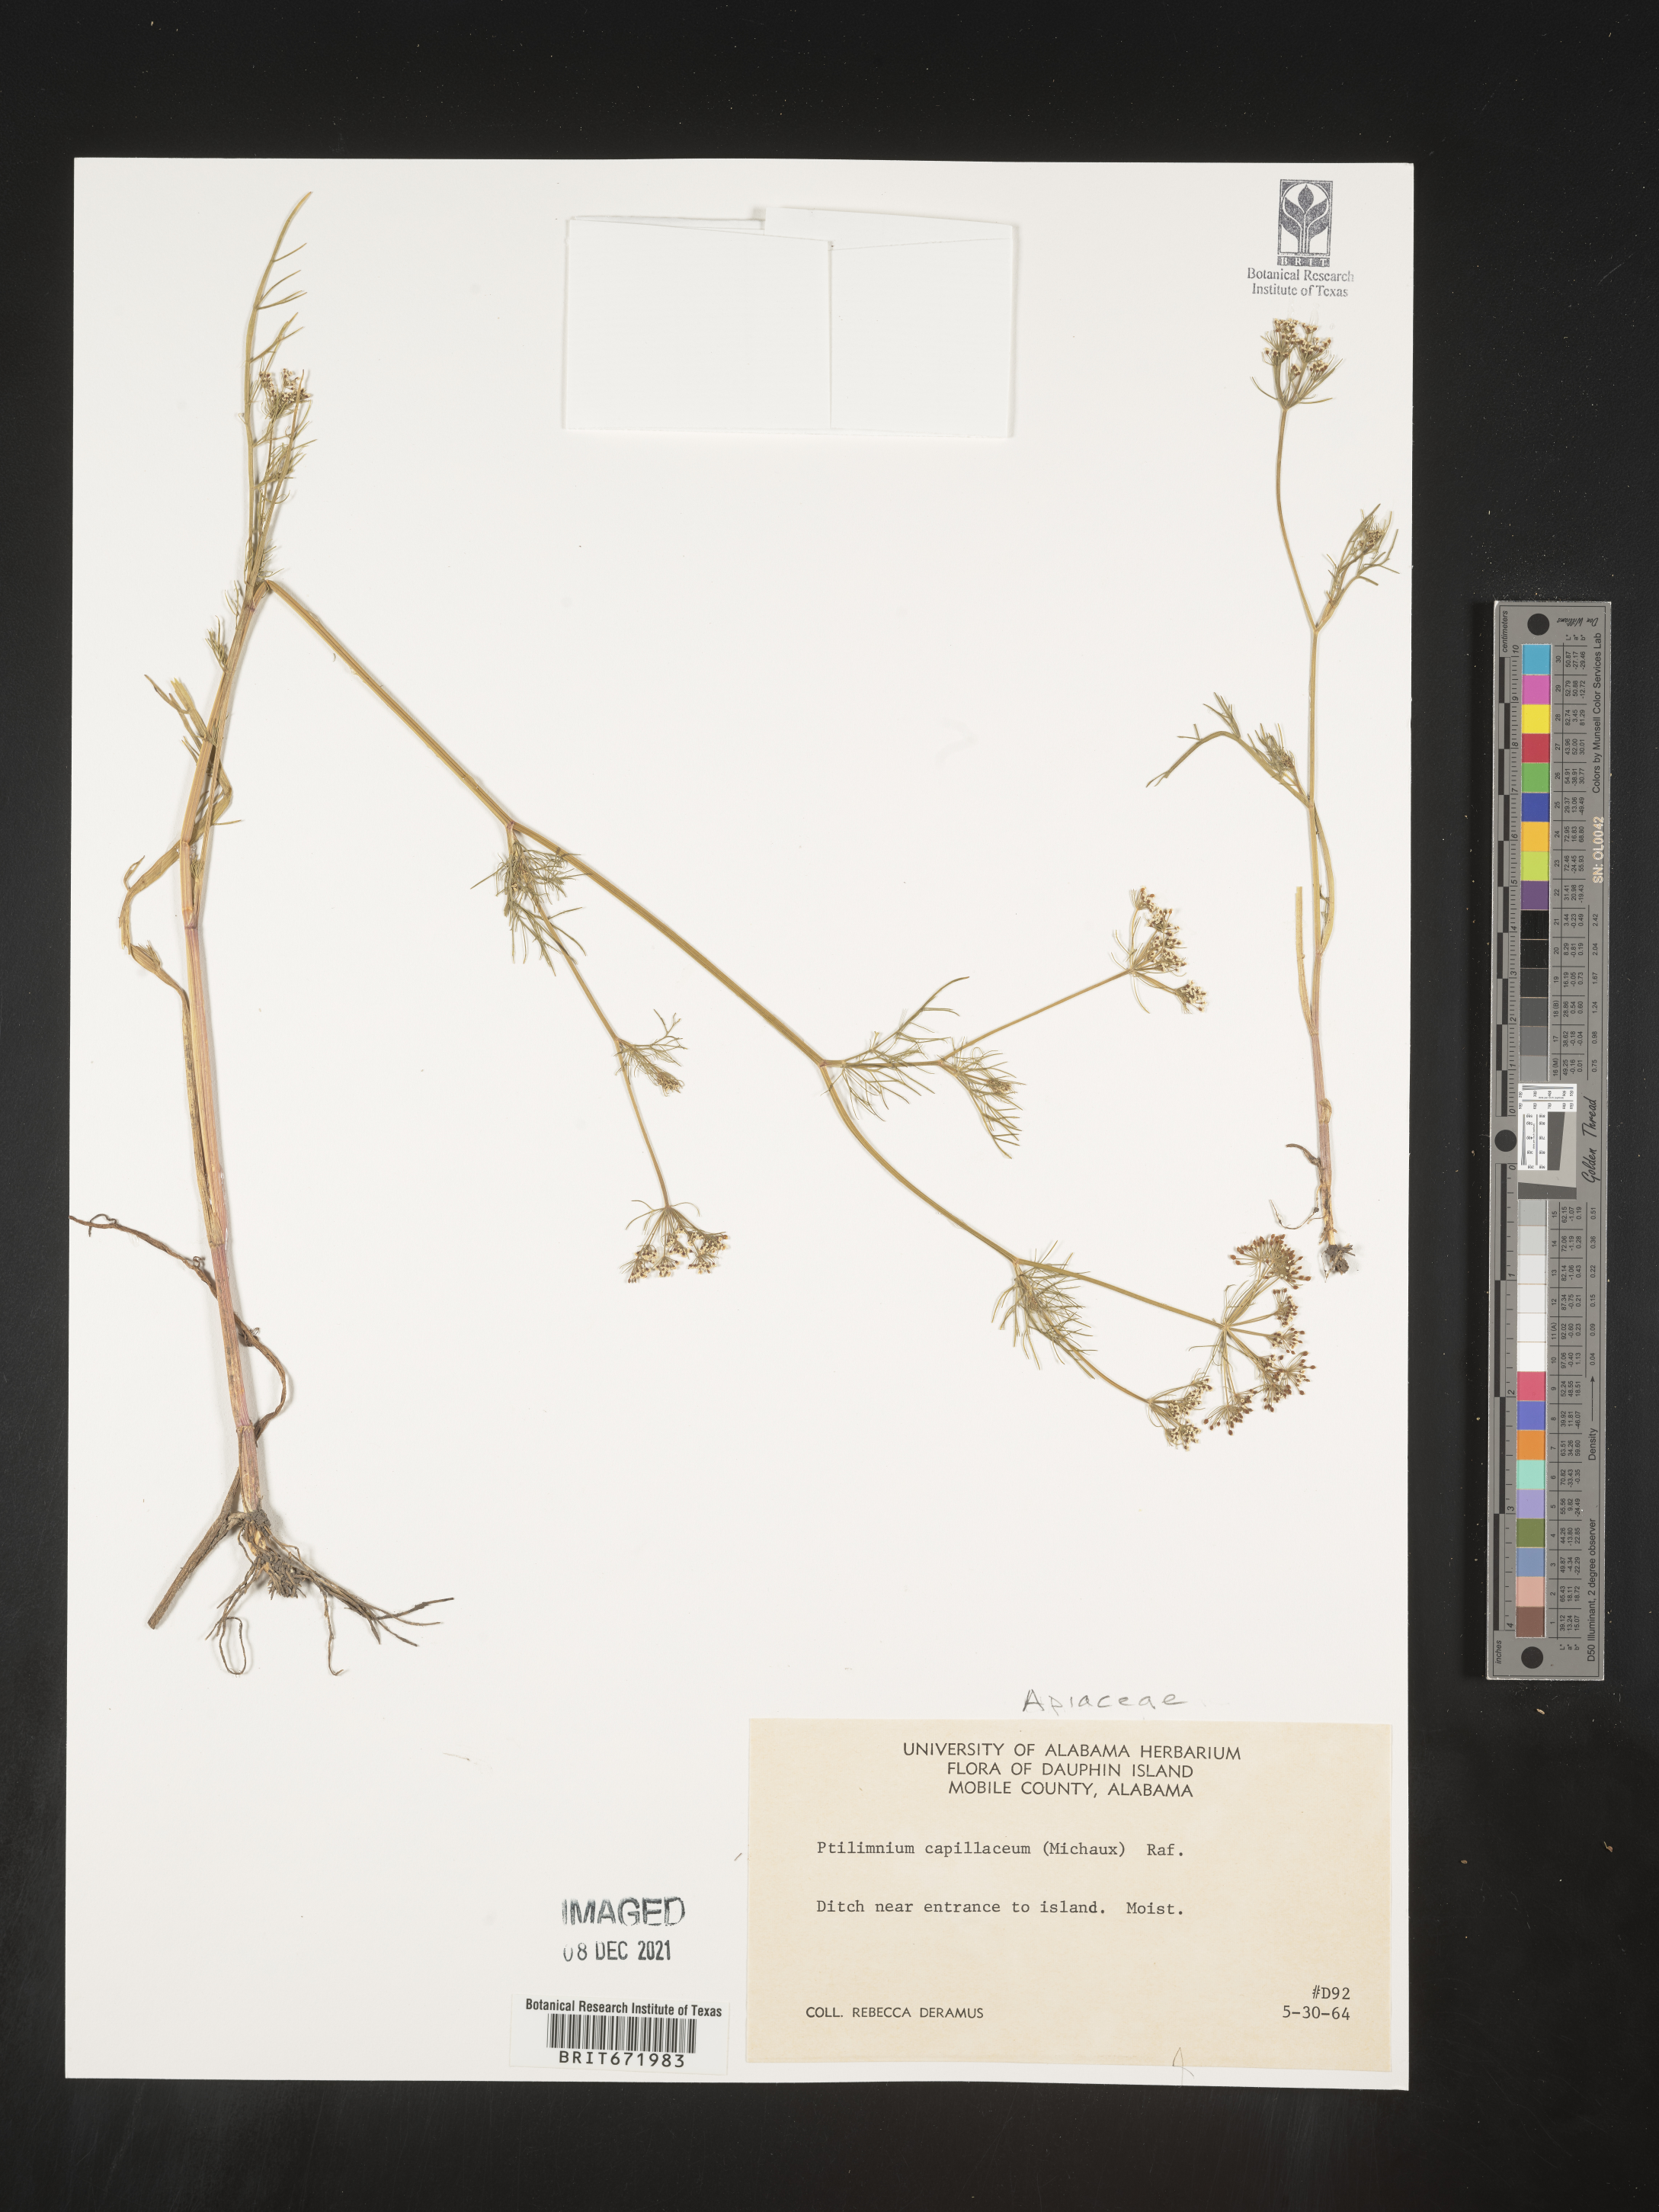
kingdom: Plantae
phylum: Tracheophyta
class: Magnoliopsida
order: Apiales
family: Apiaceae
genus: Ptilimnium
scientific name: Ptilimnium capillaceum
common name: Herbwilliam
